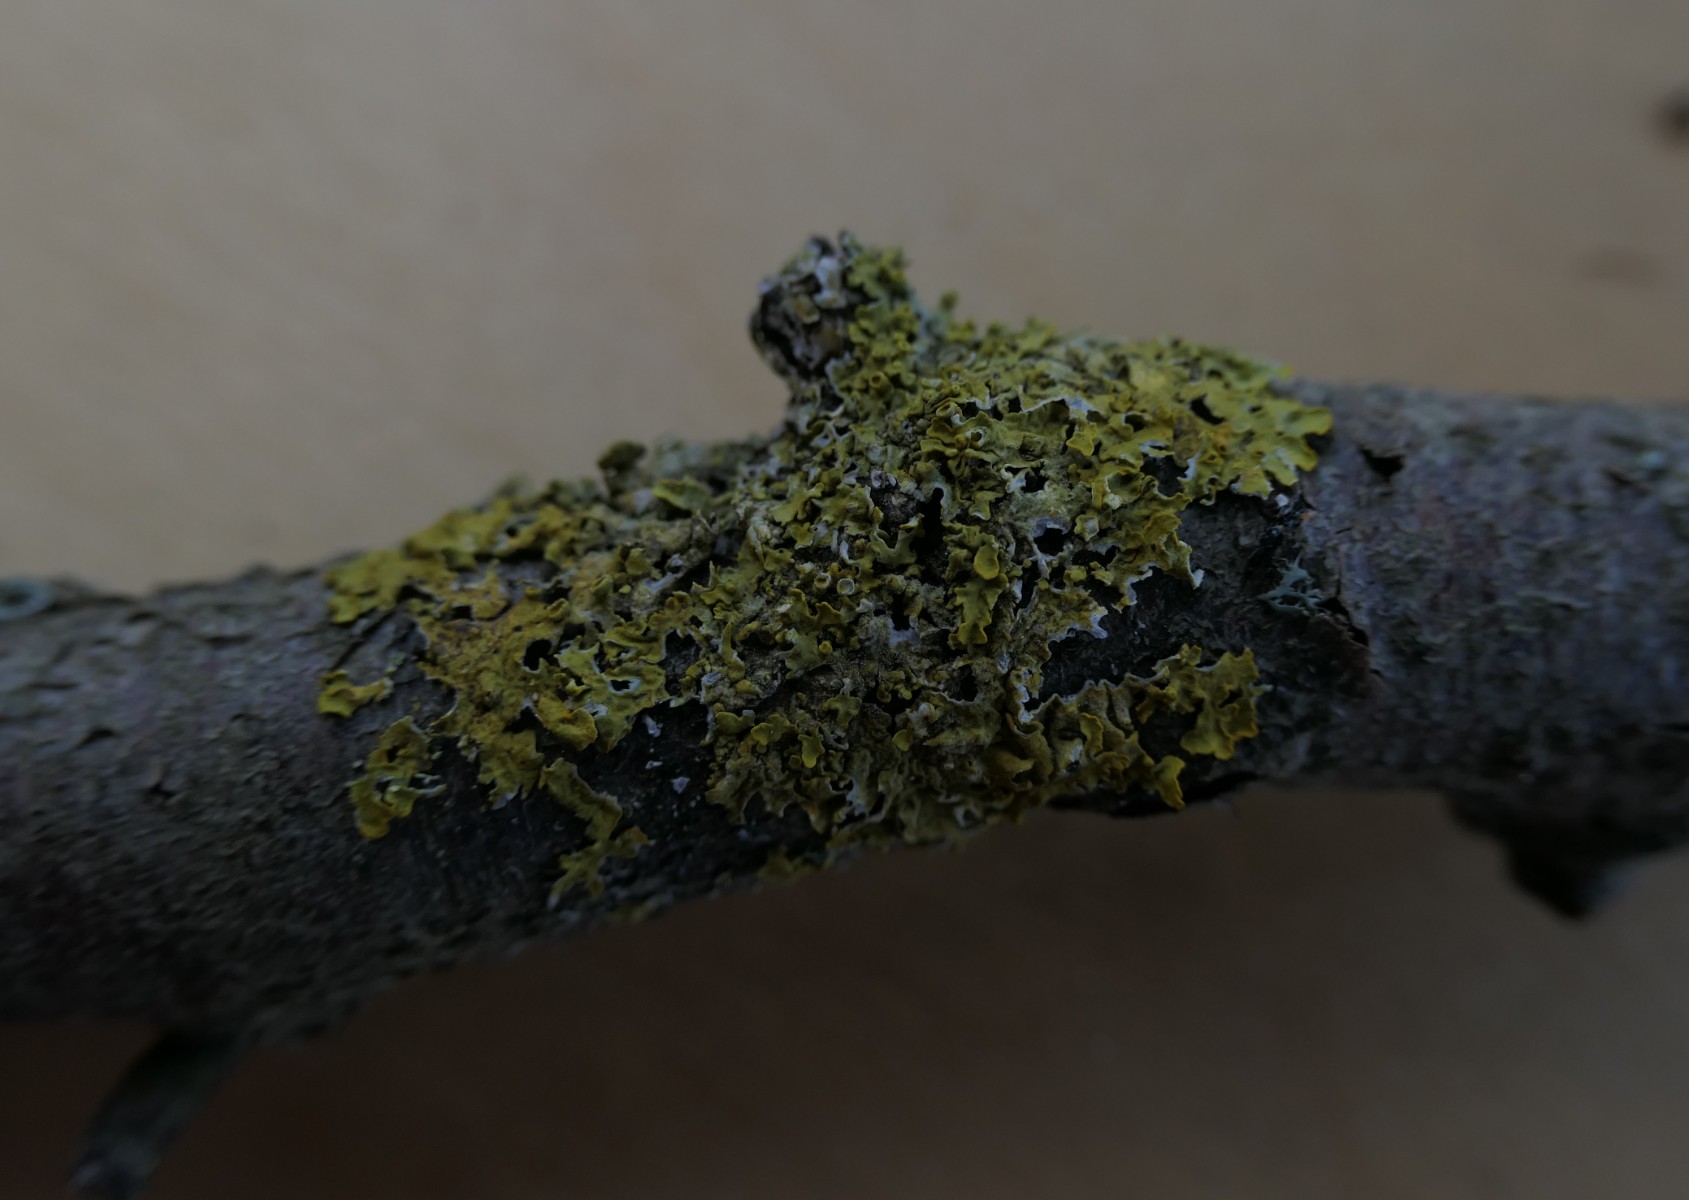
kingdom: Fungi
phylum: Ascomycota
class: Lecanoromycetes
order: Teloschistales
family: Teloschistaceae
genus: Xanthoria
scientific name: Xanthoria parietina
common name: almindelig væggelav
